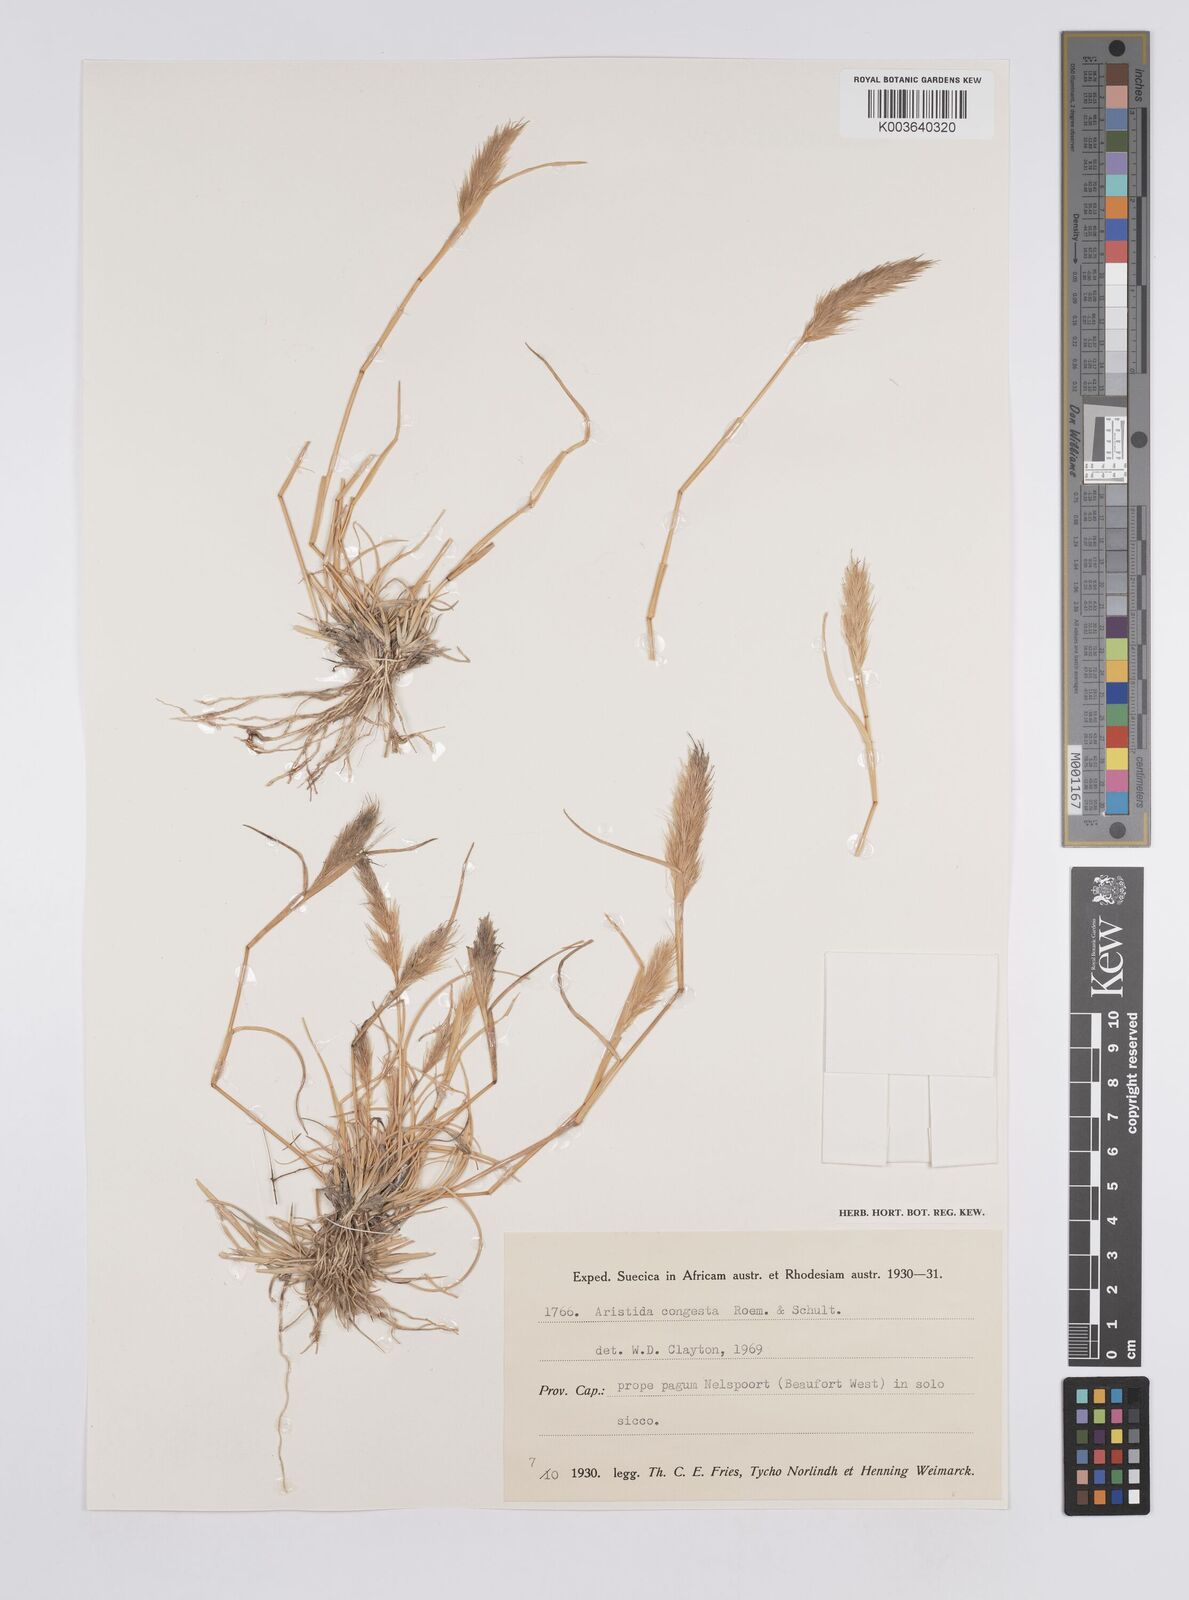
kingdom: Plantae
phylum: Tracheophyta
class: Liliopsida
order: Poales
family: Poaceae
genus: Aristida
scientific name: Aristida congesta
